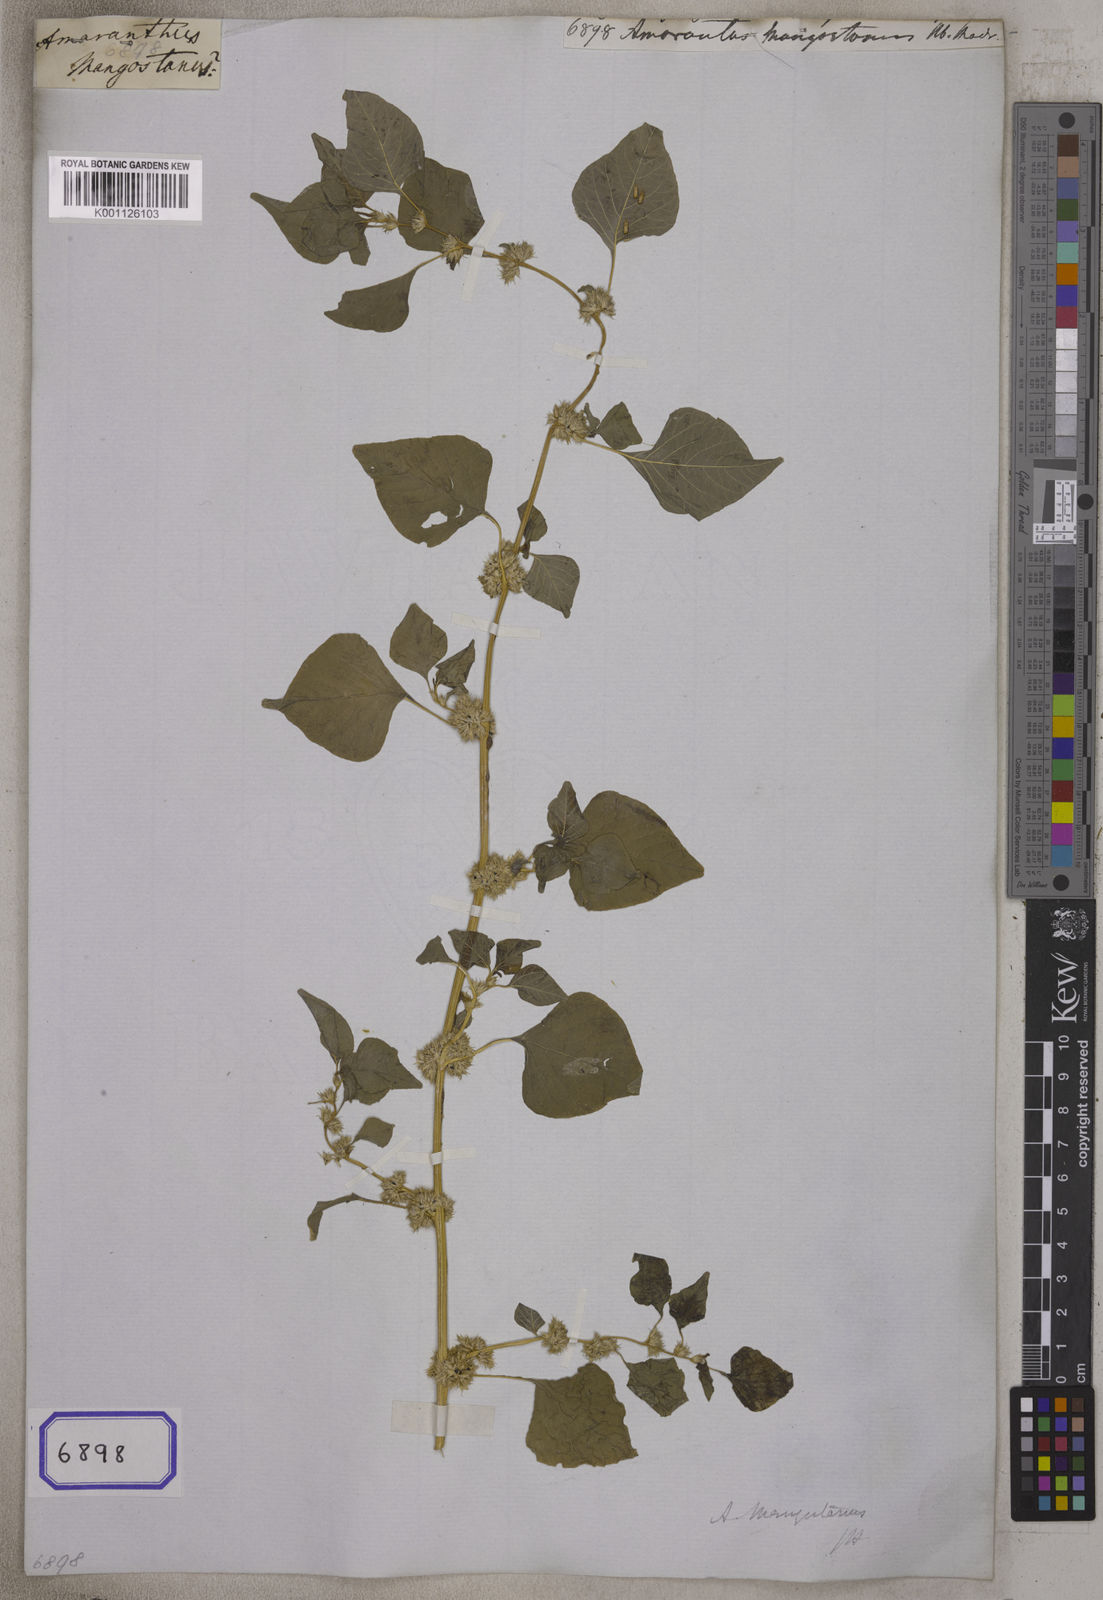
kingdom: Plantae
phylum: Tracheophyta
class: Magnoliopsida
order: Caryophyllales
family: Amaranthaceae
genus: Amaranthus
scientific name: Amaranthus tricolor
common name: Joseph's-coat
